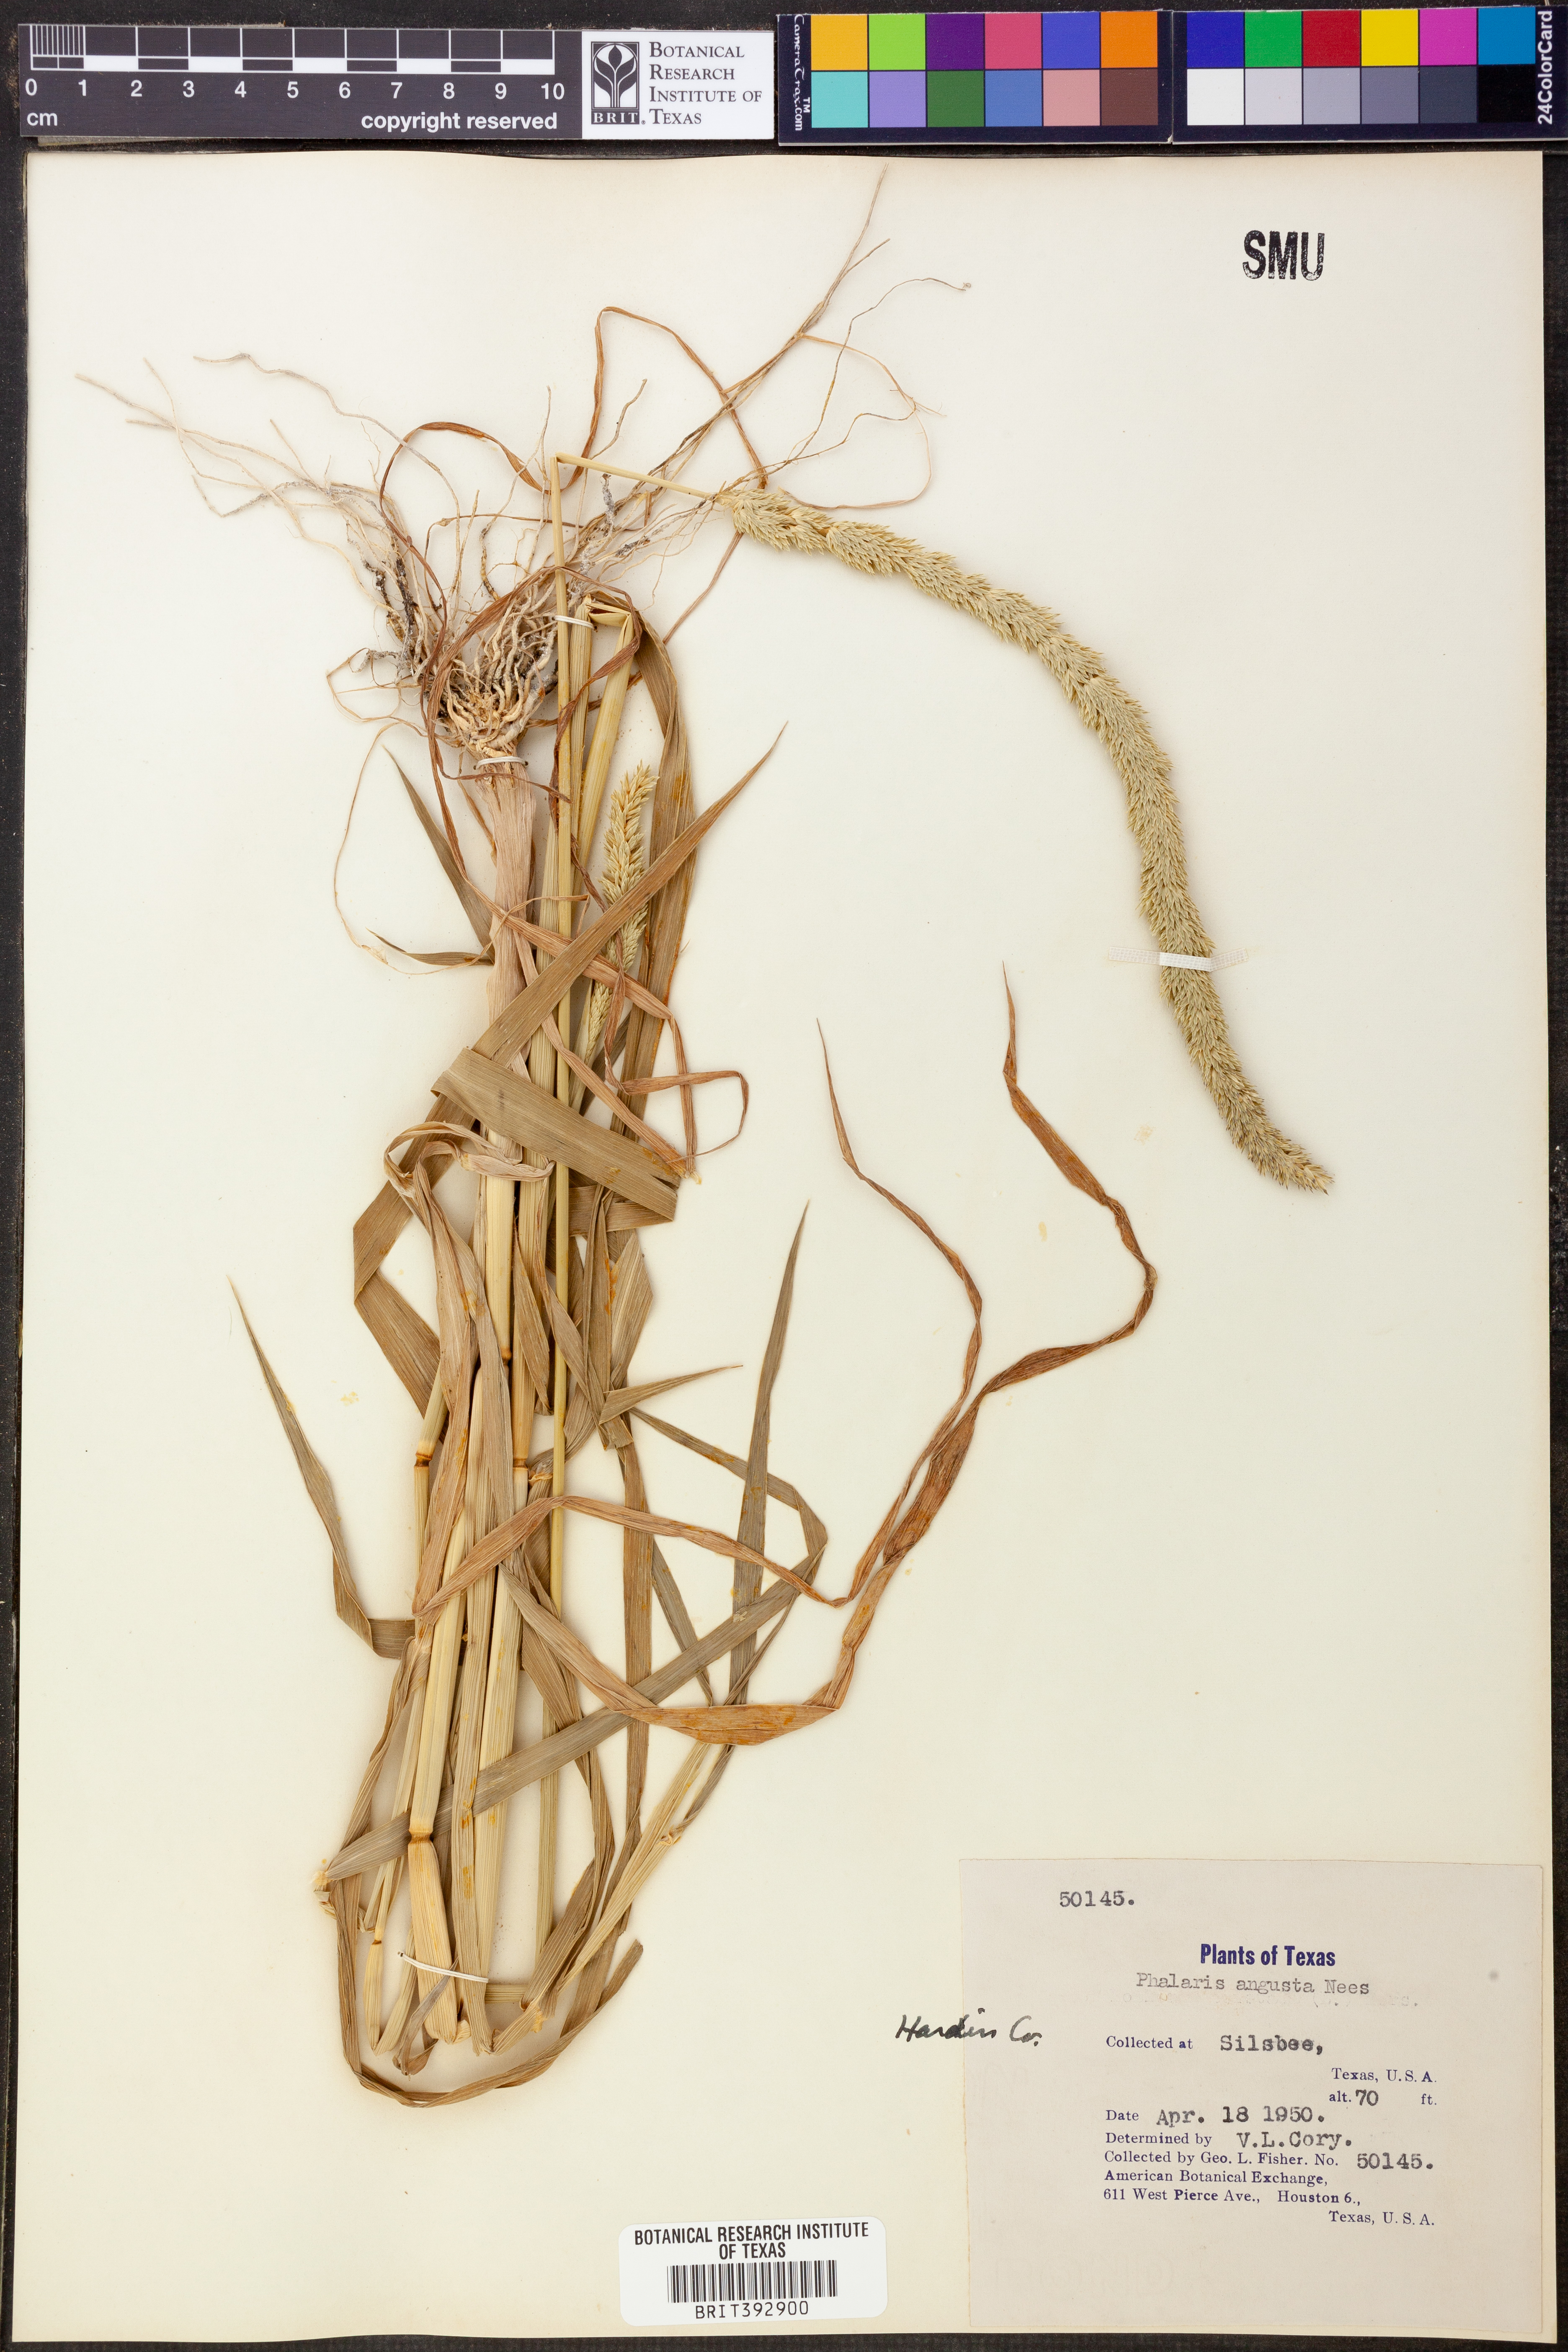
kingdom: Plantae
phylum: Tracheophyta
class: Liliopsida
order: Poales
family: Poaceae
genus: Phalaris
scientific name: Phalaris angusta
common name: Narrow canary grass
